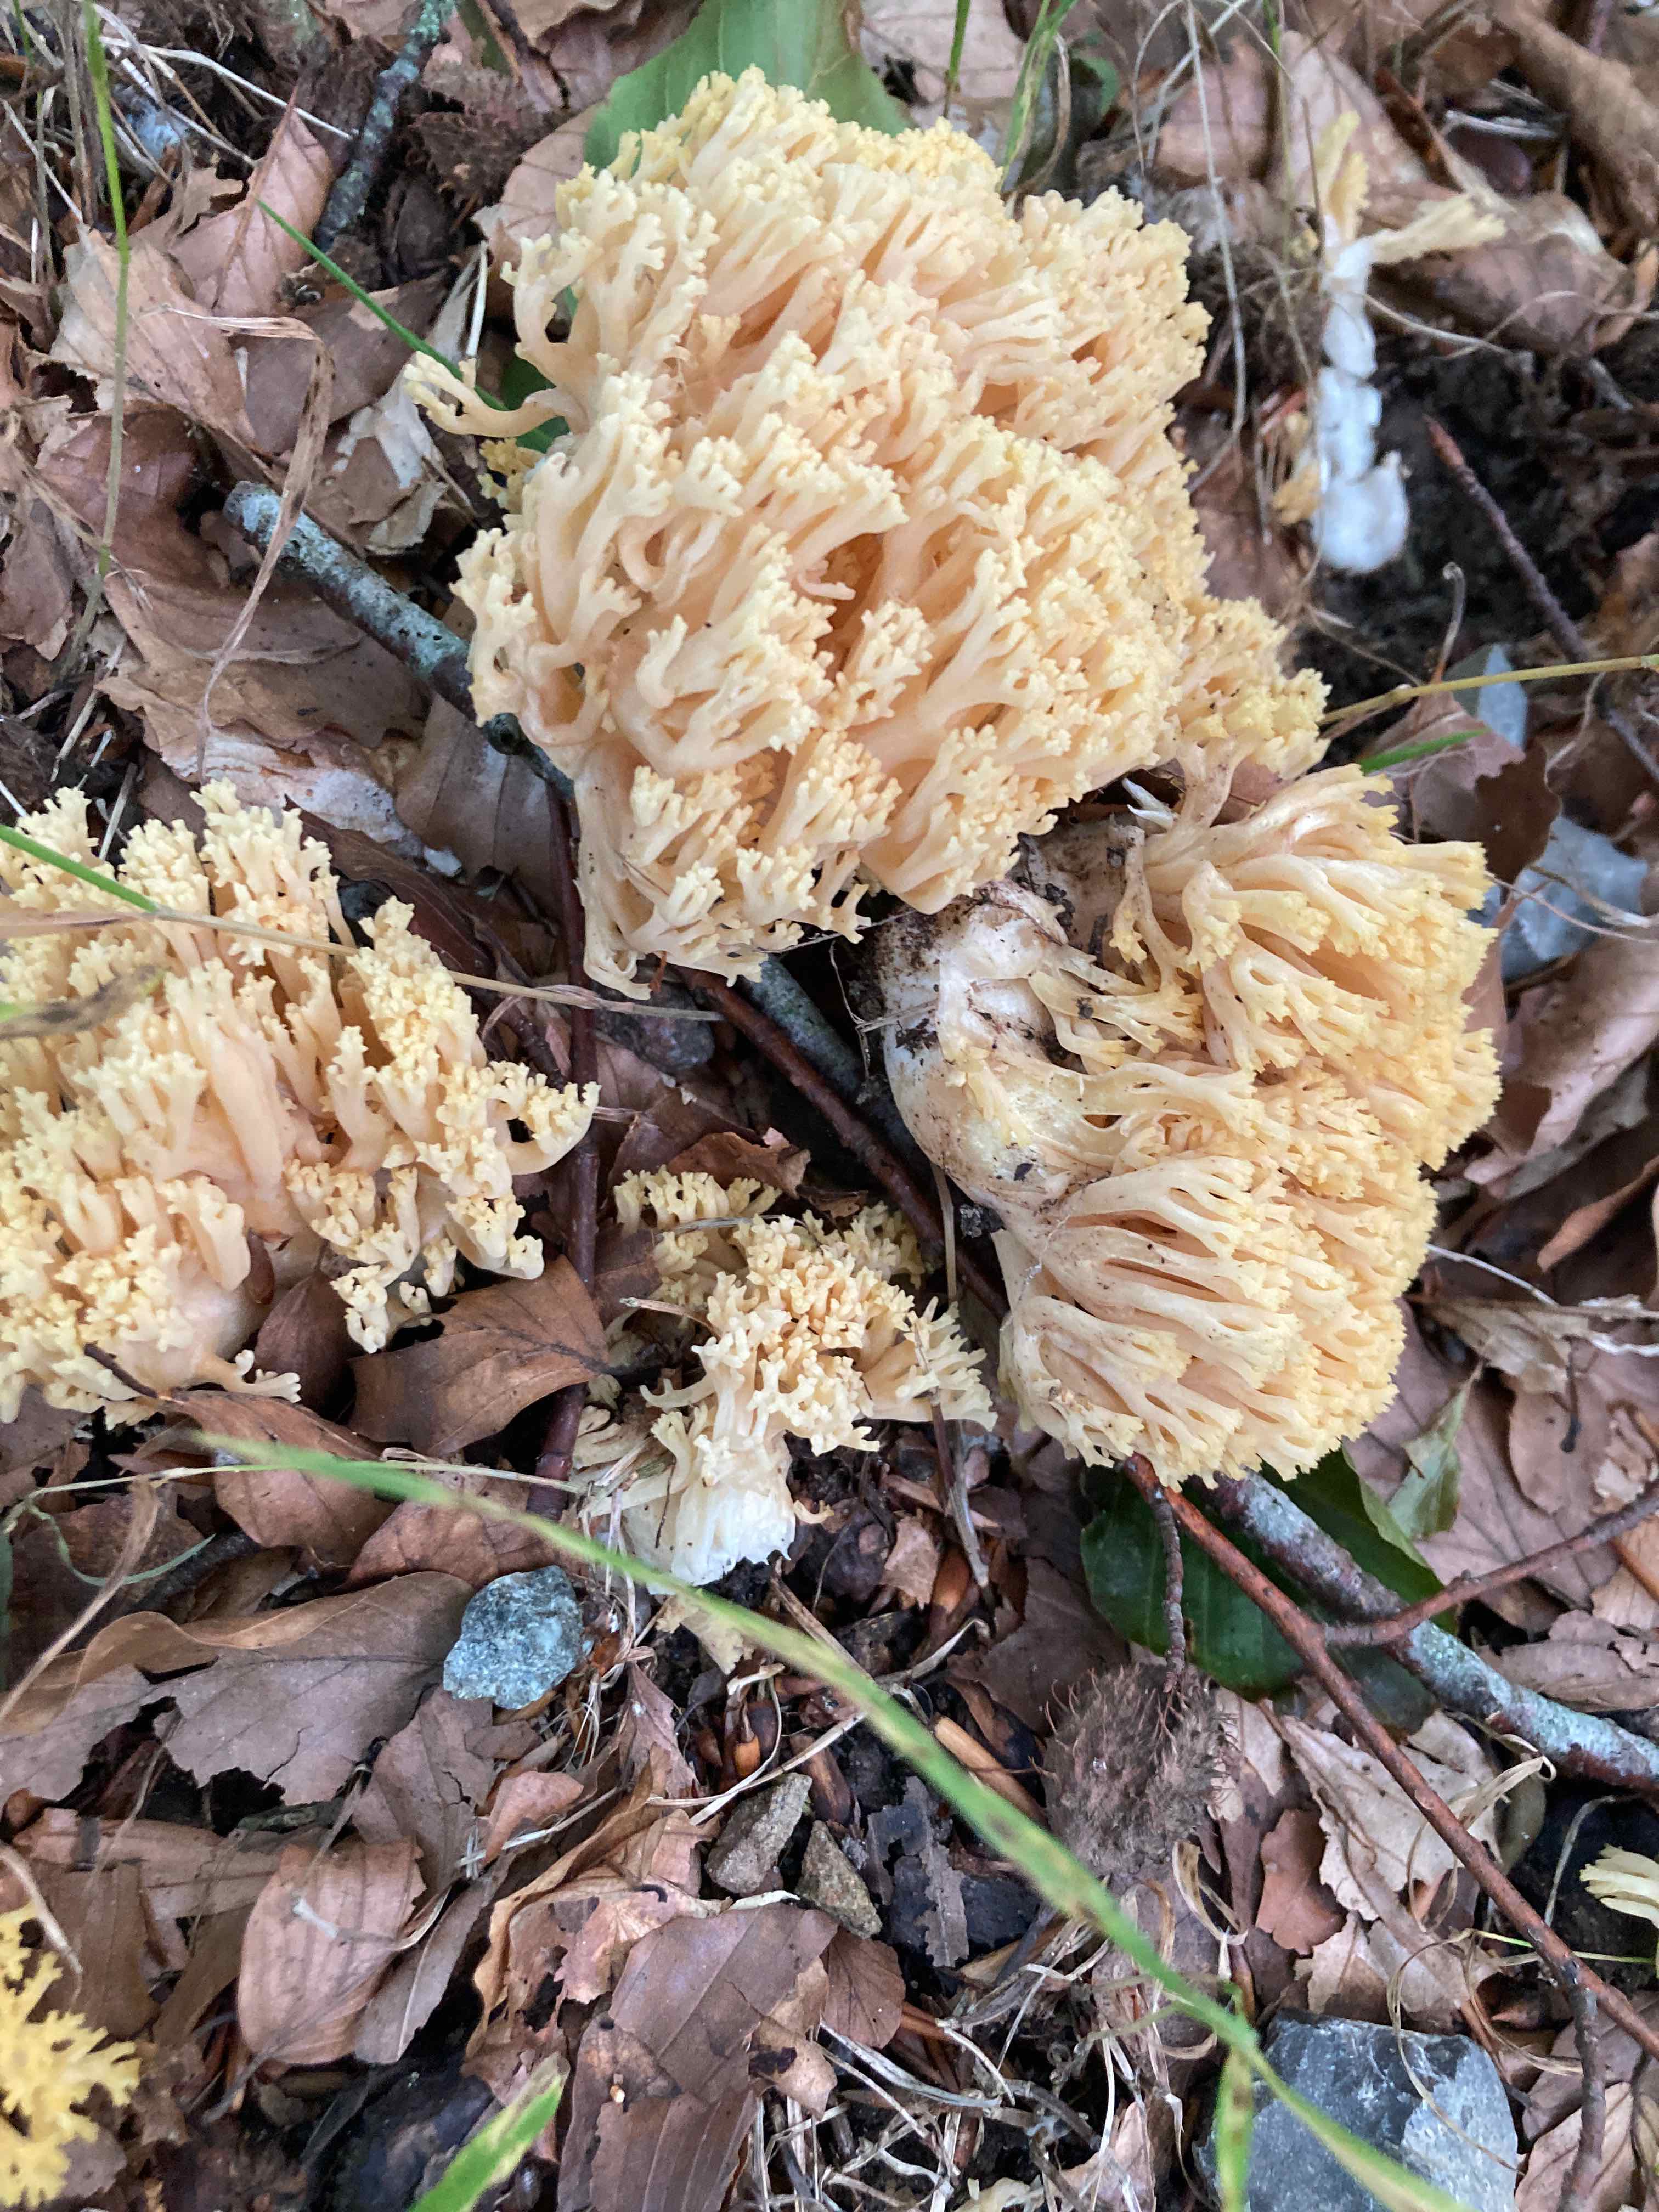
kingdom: Fungi
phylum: Basidiomycota
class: Agaricomycetes
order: Gomphales
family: Gomphaceae
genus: Ramaria
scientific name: Ramaria krieglsteineri
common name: smalsporet koralsvamp
